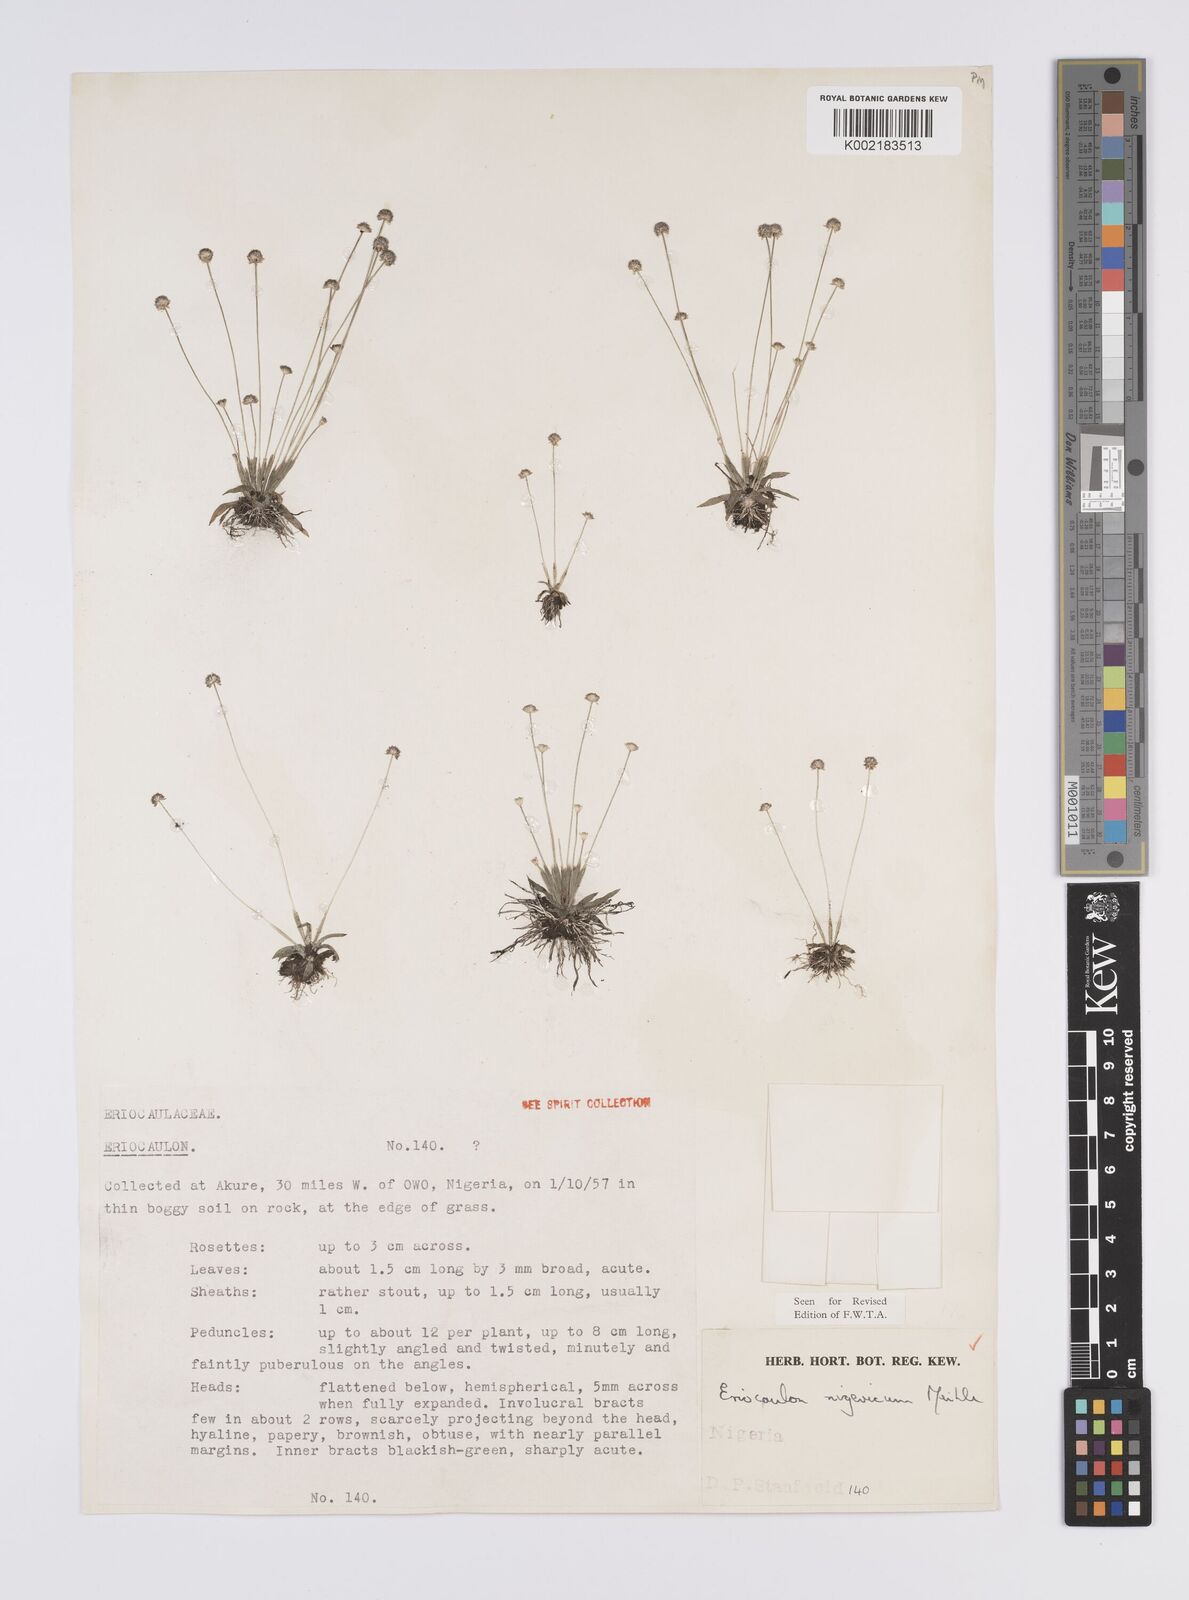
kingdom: Plantae
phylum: Tracheophyta
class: Liliopsida
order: Poales
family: Eriocaulaceae
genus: Eriocaulon
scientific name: Eriocaulon nigericum
